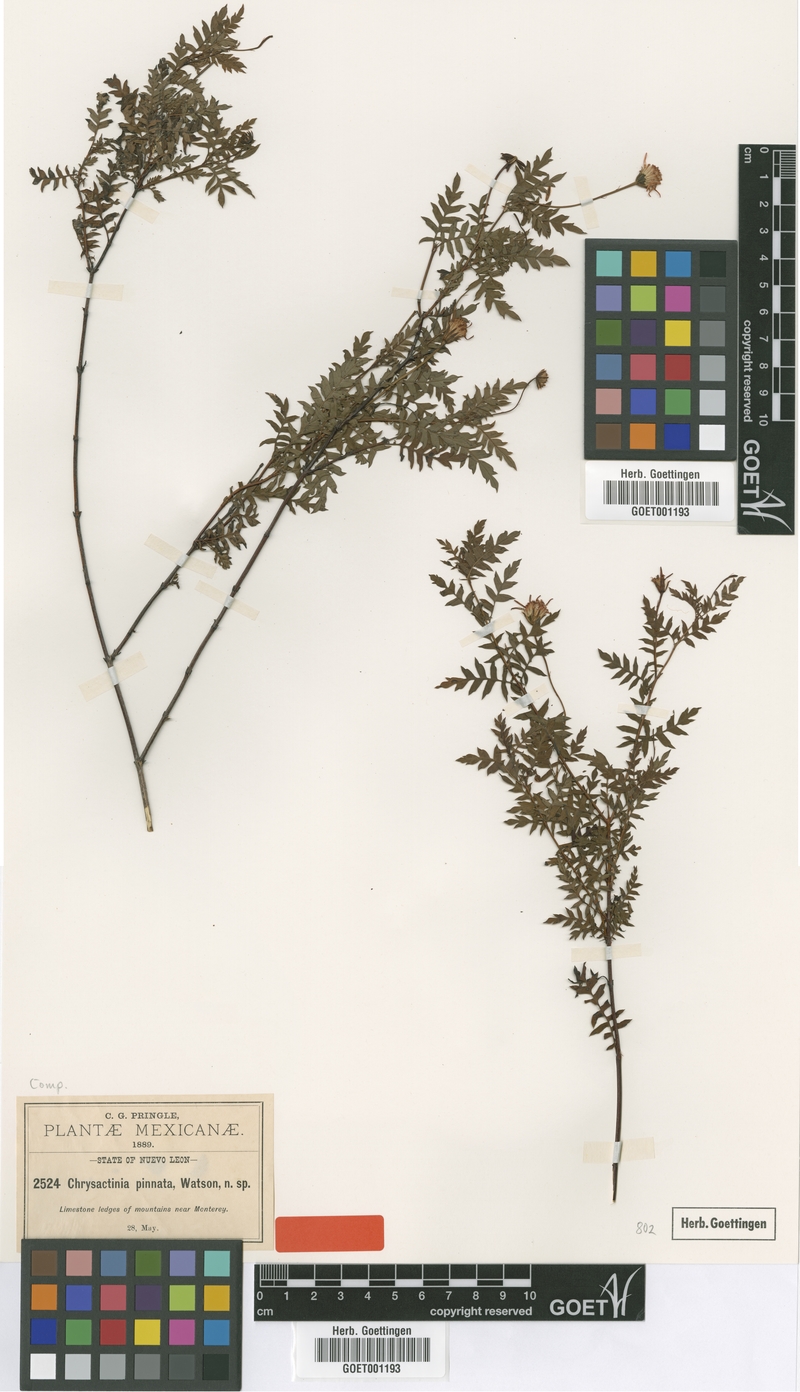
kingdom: Plantae
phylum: Tracheophyta
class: Magnoliopsida
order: Asterales
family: Asteraceae
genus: Chrysactinia
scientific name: Chrysactinia pinnata
